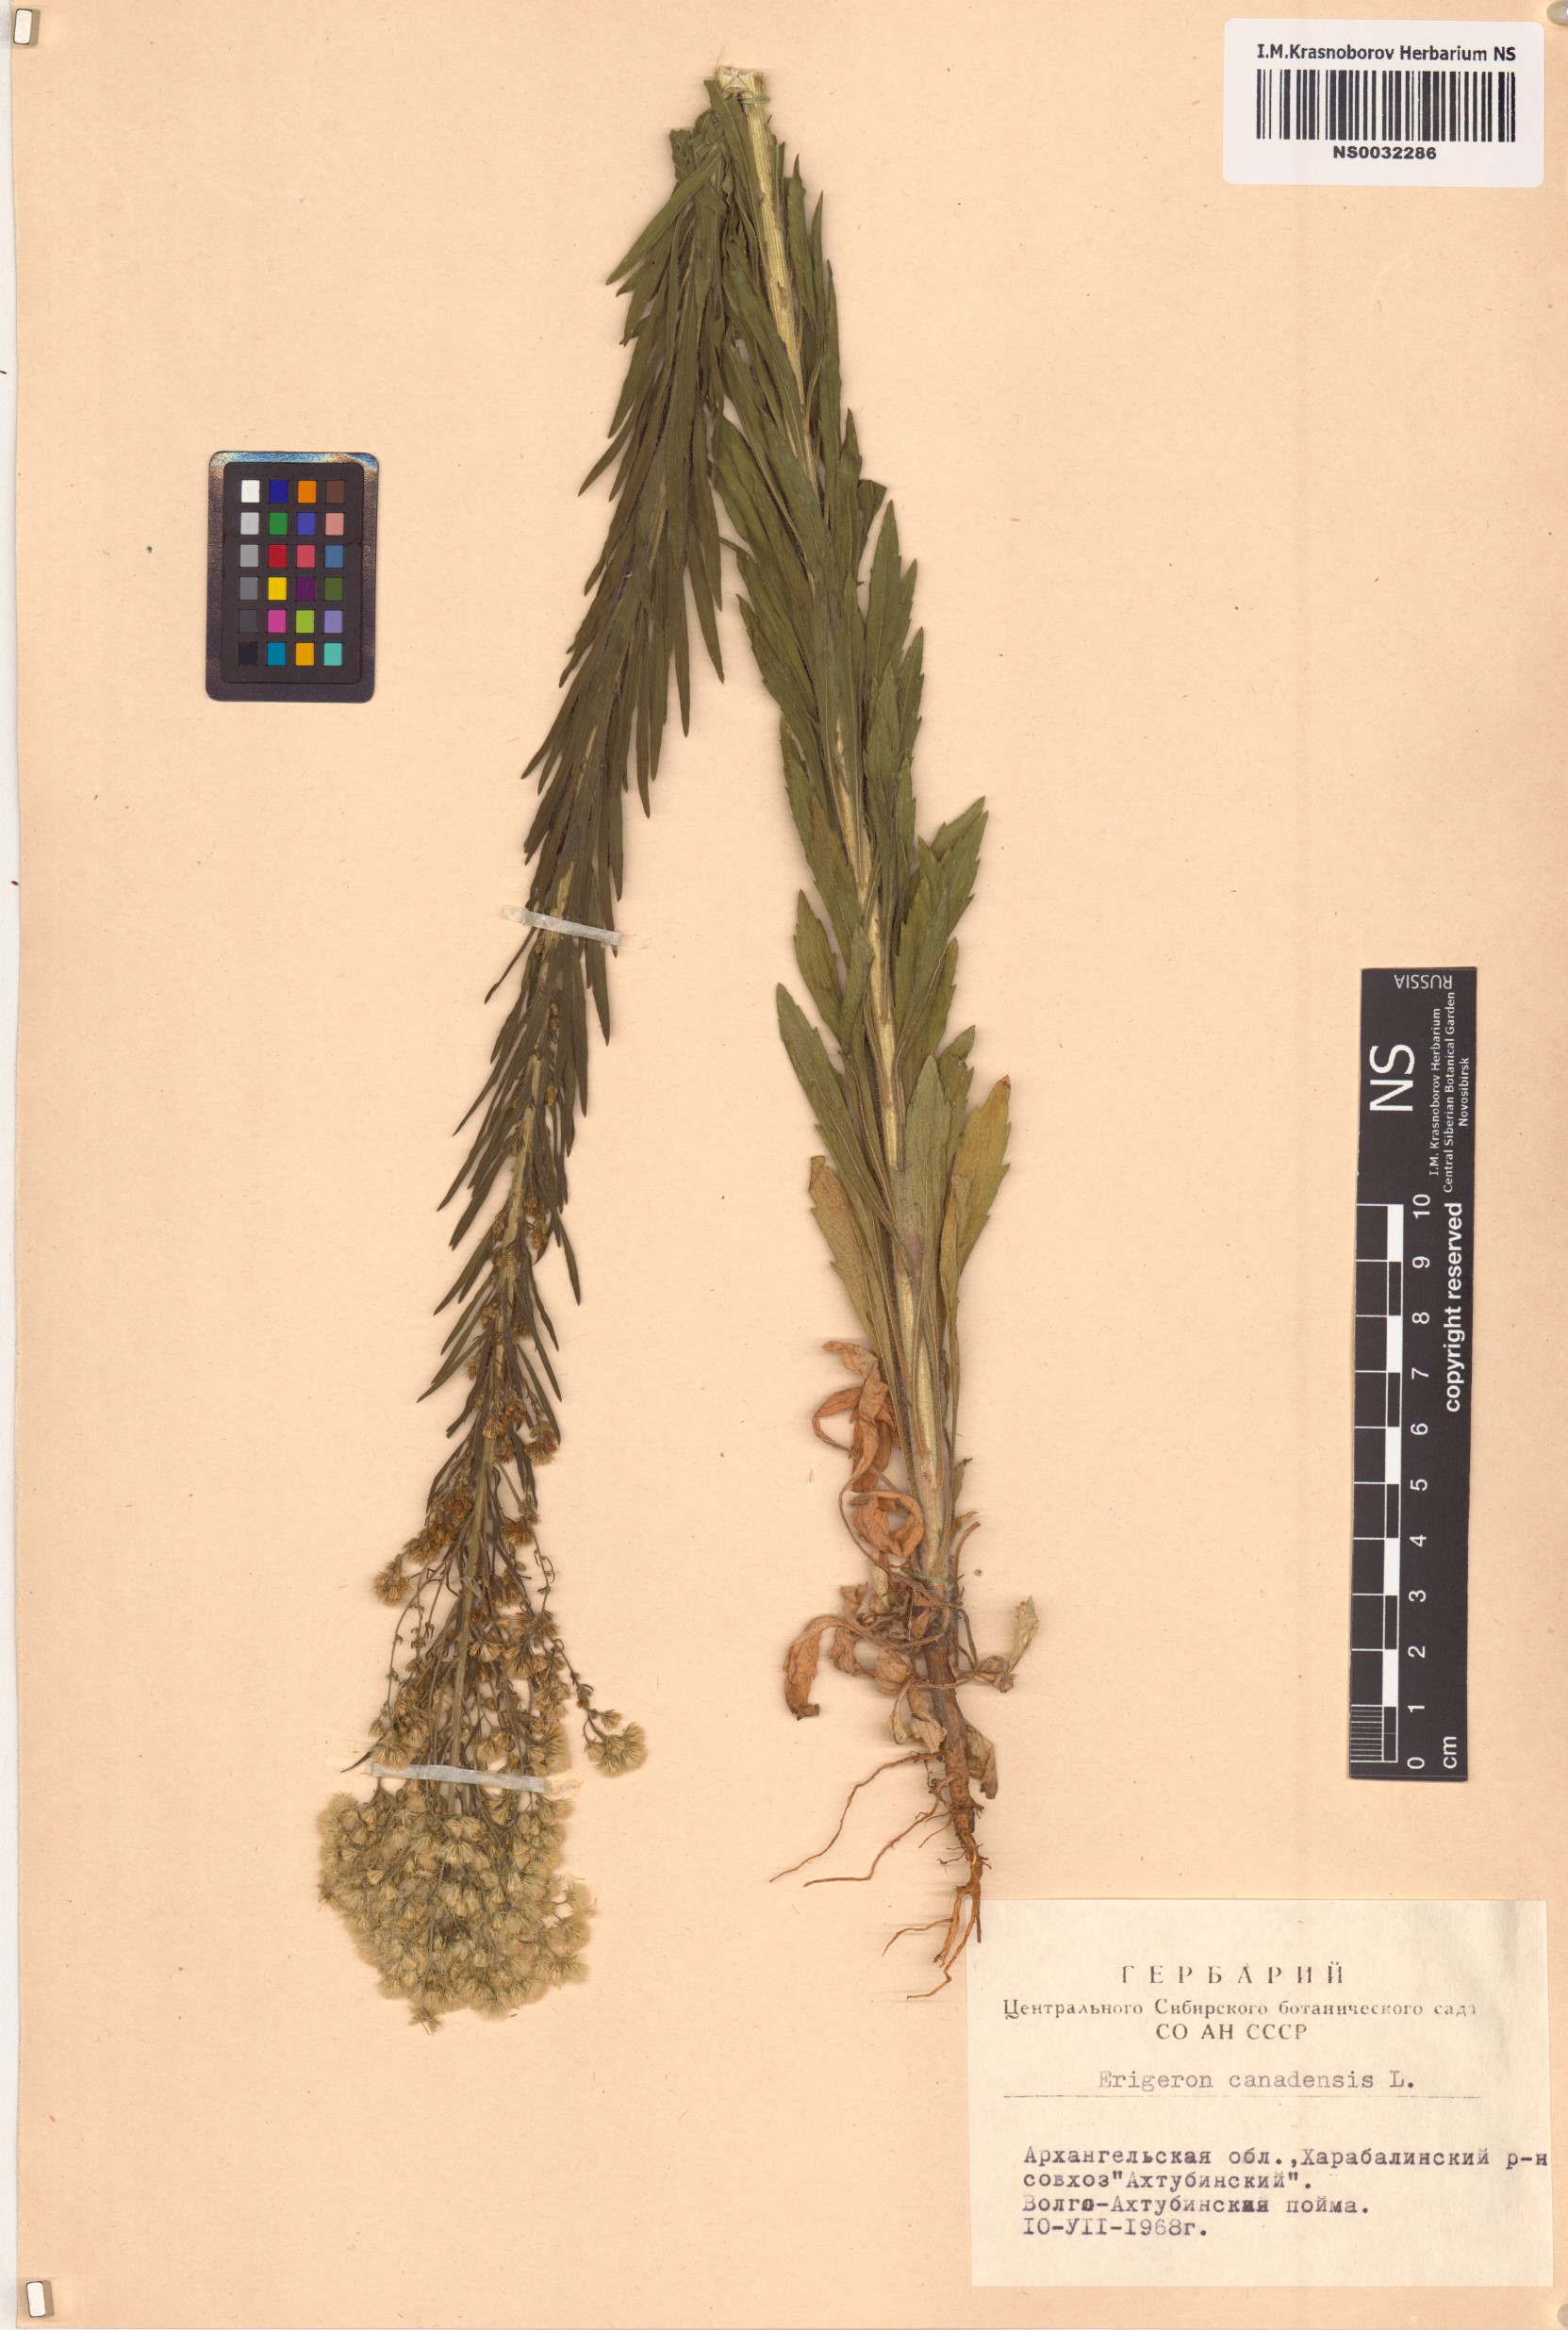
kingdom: Plantae
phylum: Tracheophyta
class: Magnoliopsida
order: Asterales
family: Asteraceae
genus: Erigeron
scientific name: Erigeron canadensis
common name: Canadian fleabane
